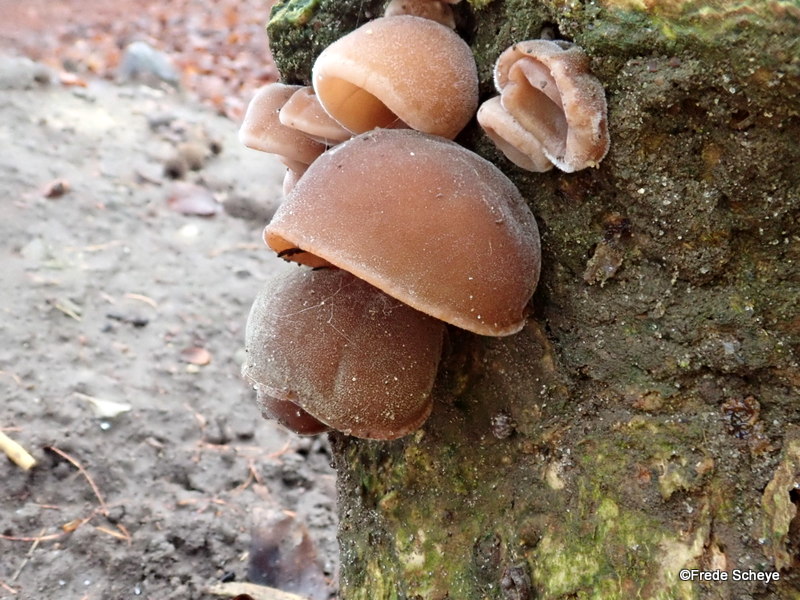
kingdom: Fungi
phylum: Basidiomycota
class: Agaricomycetes
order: Auriculariales
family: Auriculariaceae
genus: Auricularia
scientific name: Auricularia auricula-judae
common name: almindelig judasøre
